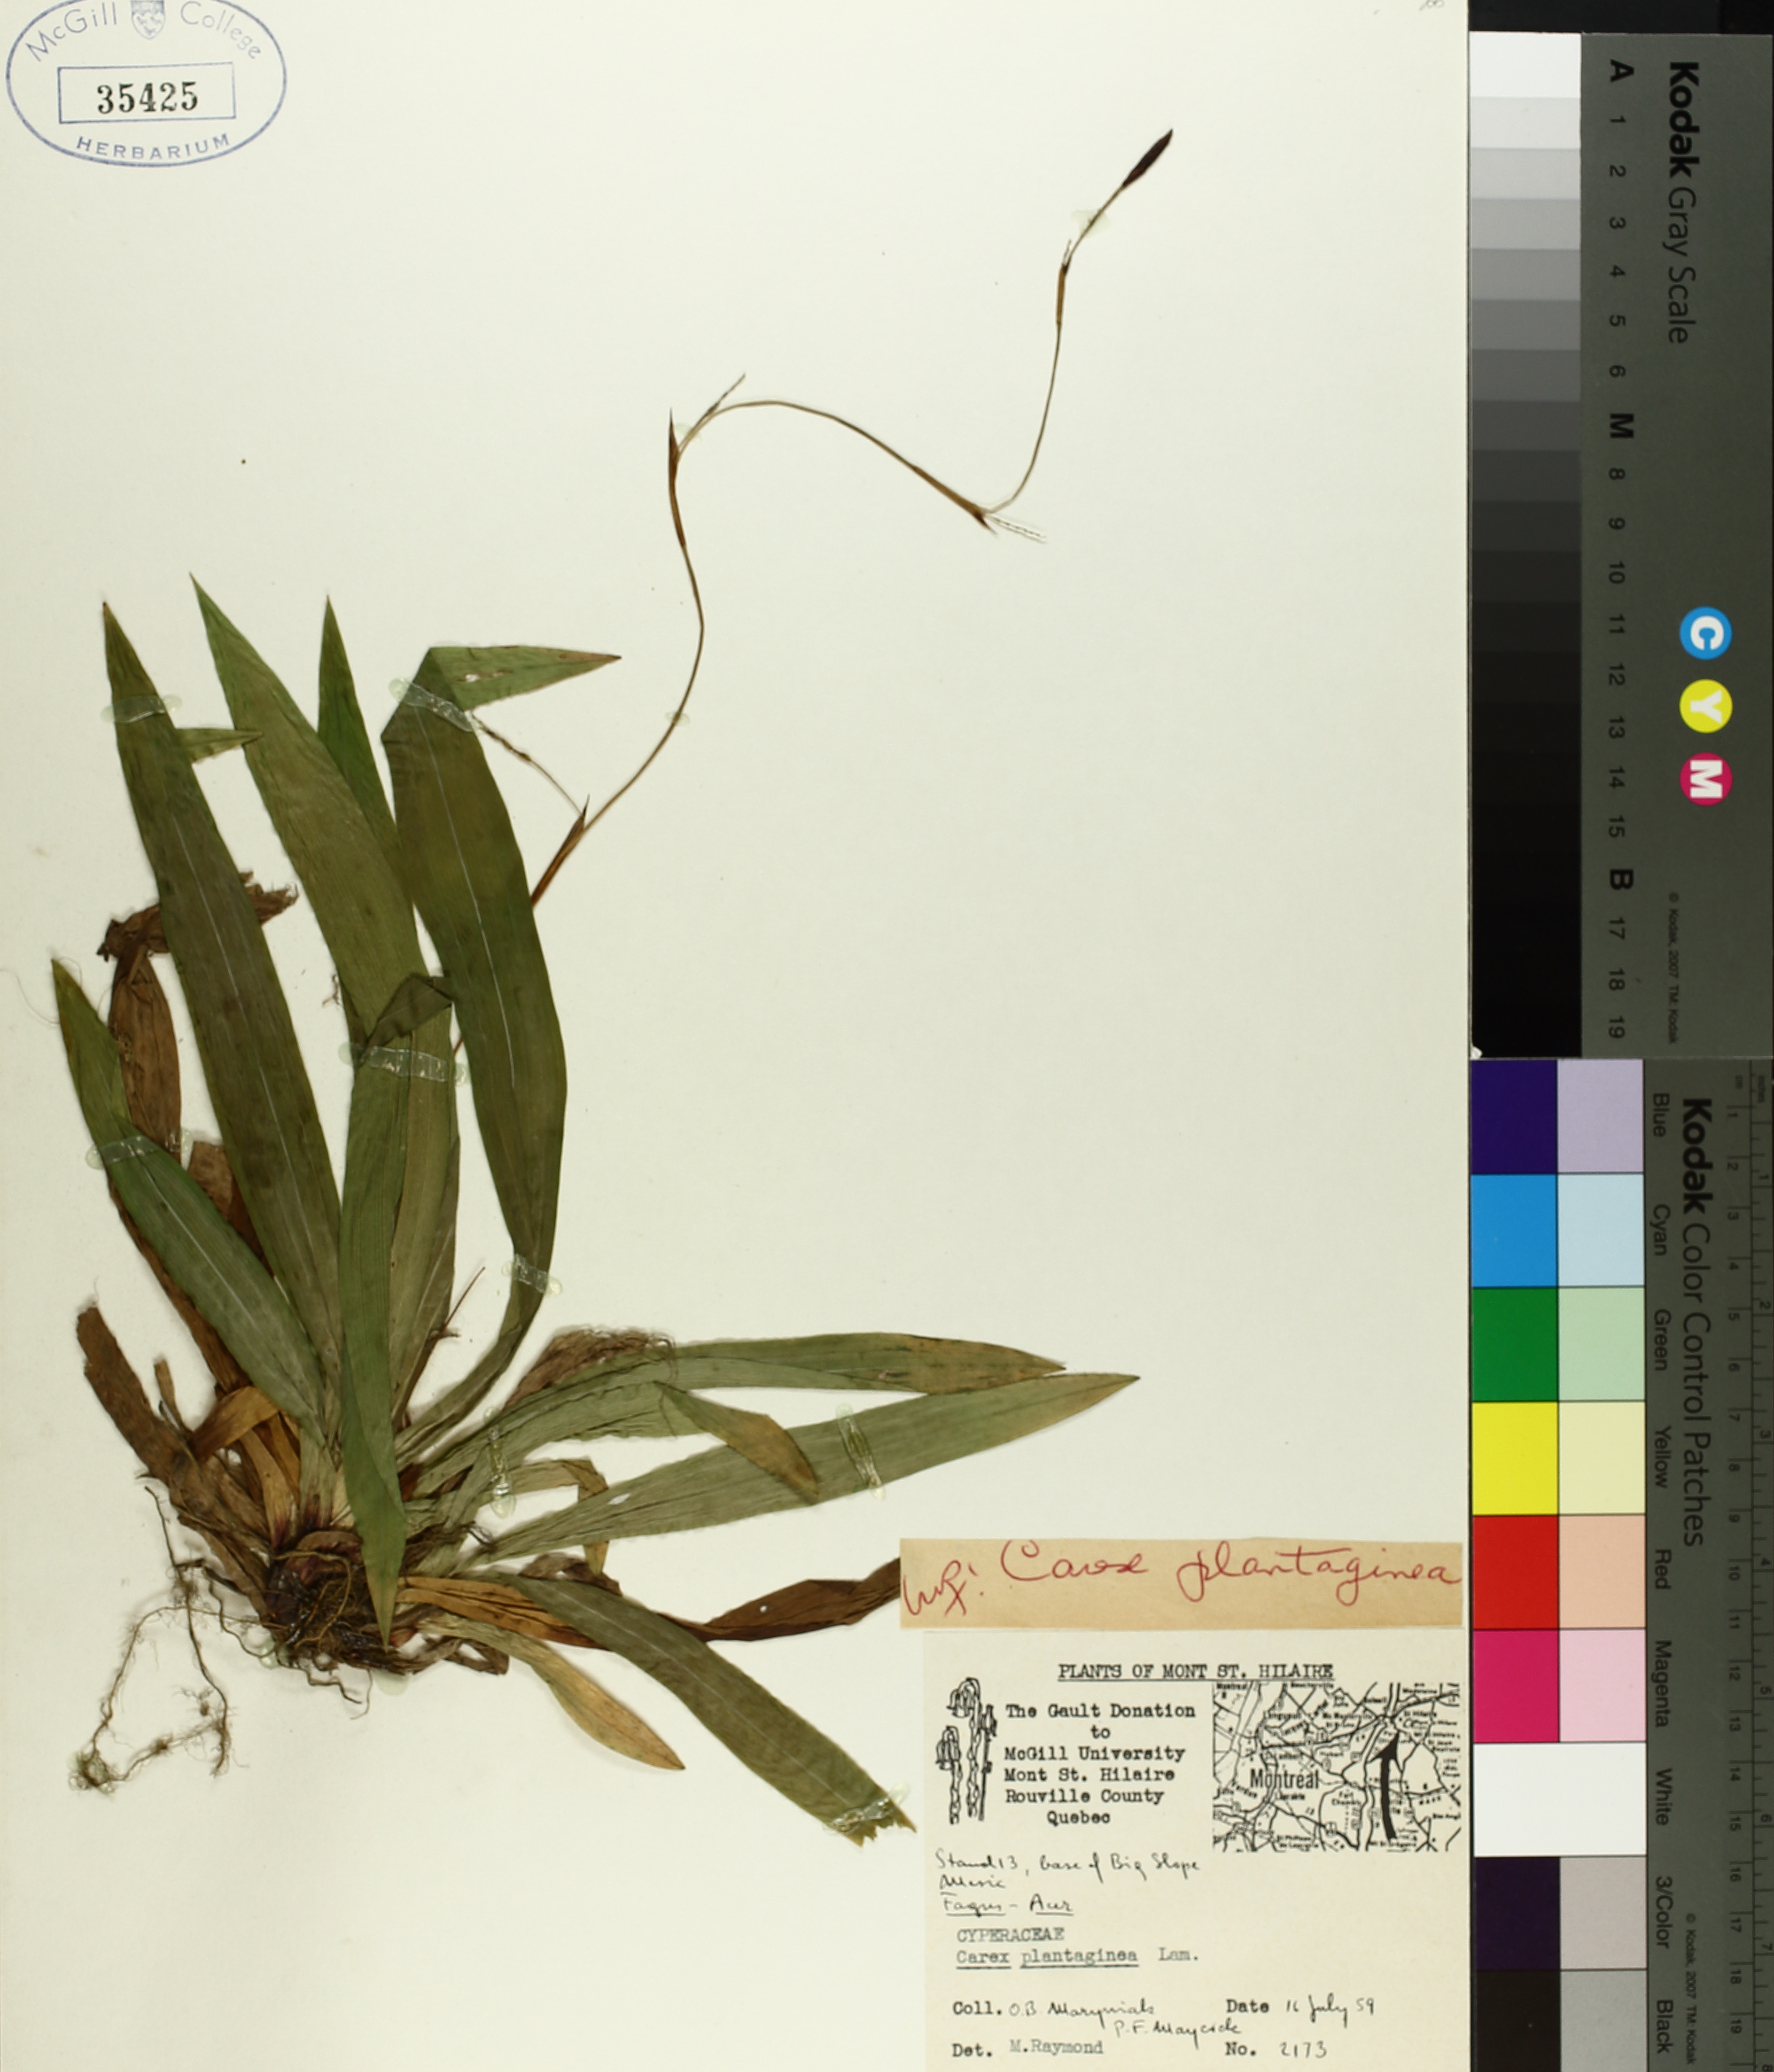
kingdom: Plantae
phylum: Tracheophyta
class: Liliopsida
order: Poales
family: Cyperaceae
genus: Carex
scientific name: Carex plantaginea
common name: Plantain-leaved sedge
